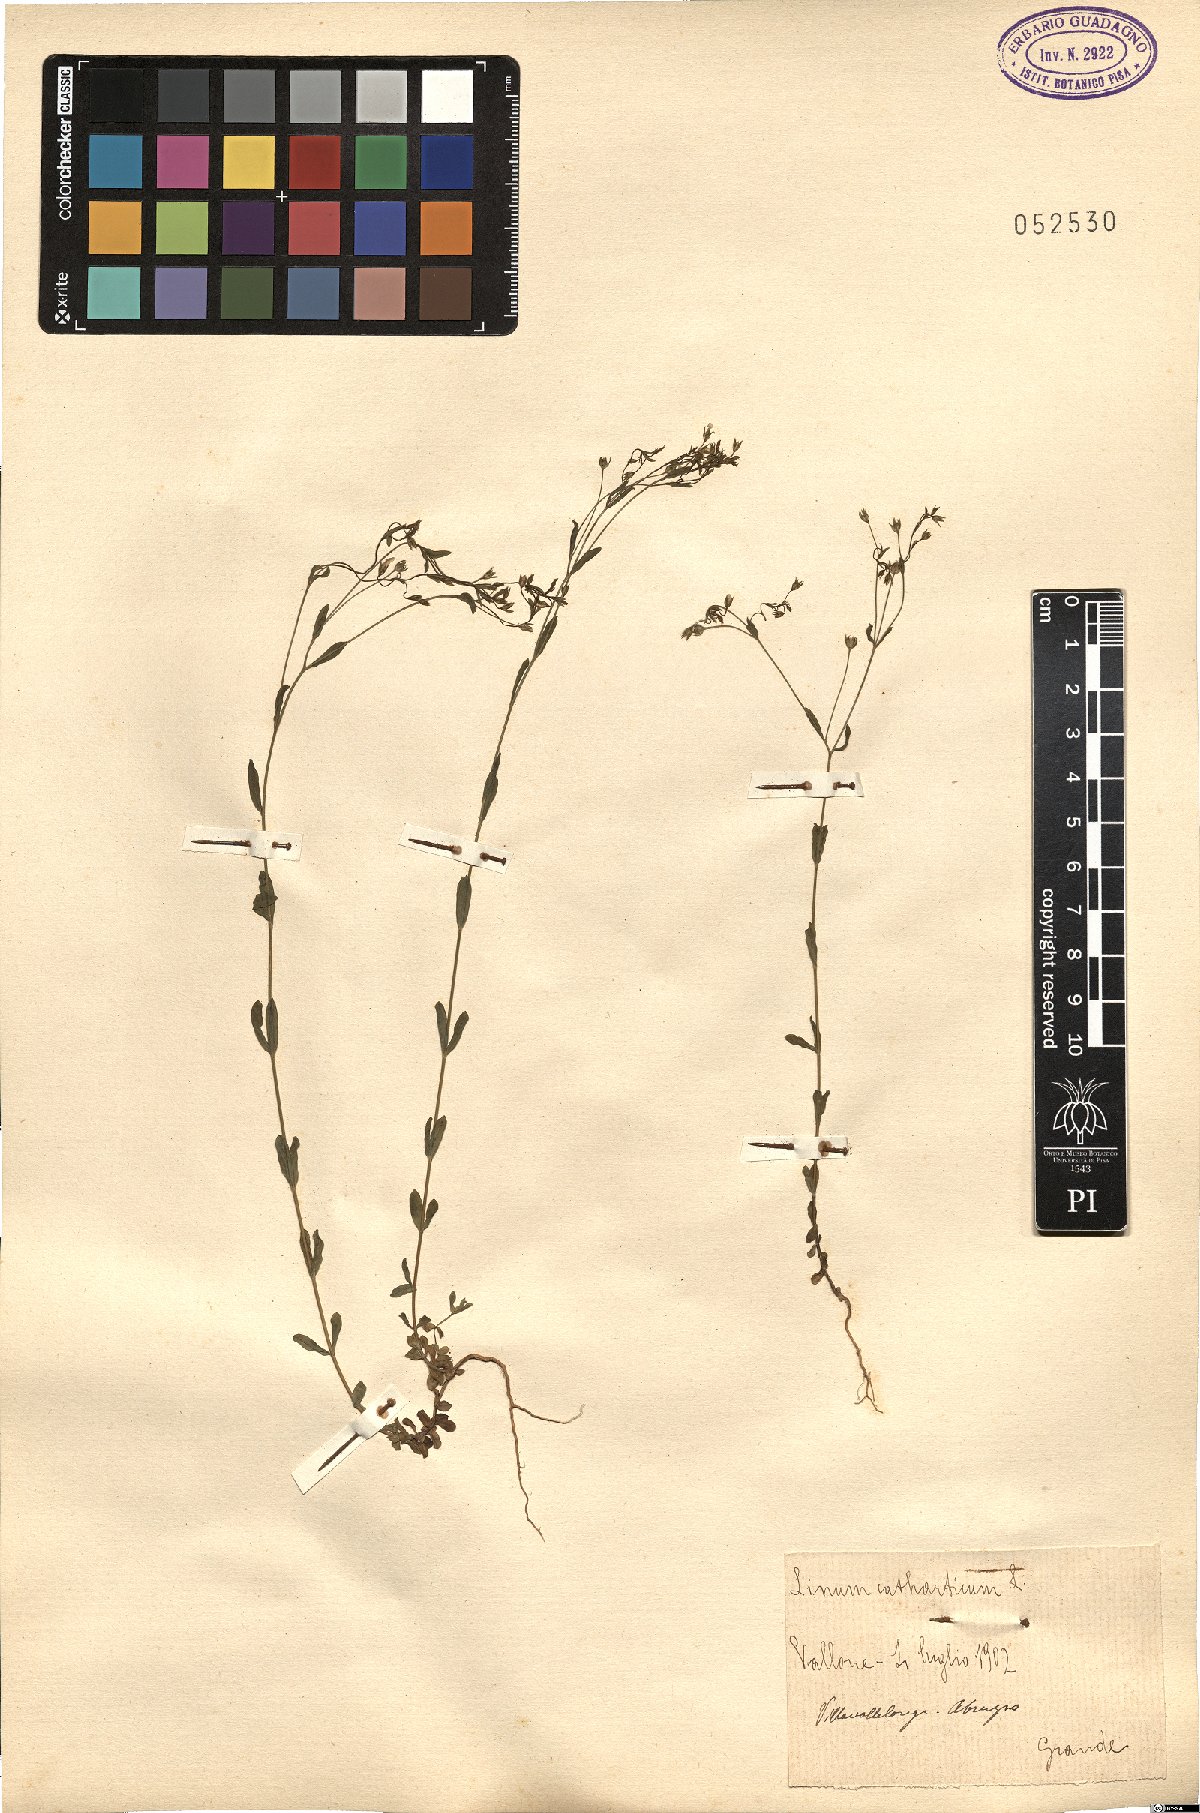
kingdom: Plantae
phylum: Tracheophyta
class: Magnoliopsida
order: Malpighiales
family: Linaceae
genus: Linum
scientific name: Linum catharticum
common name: Fairy flax
